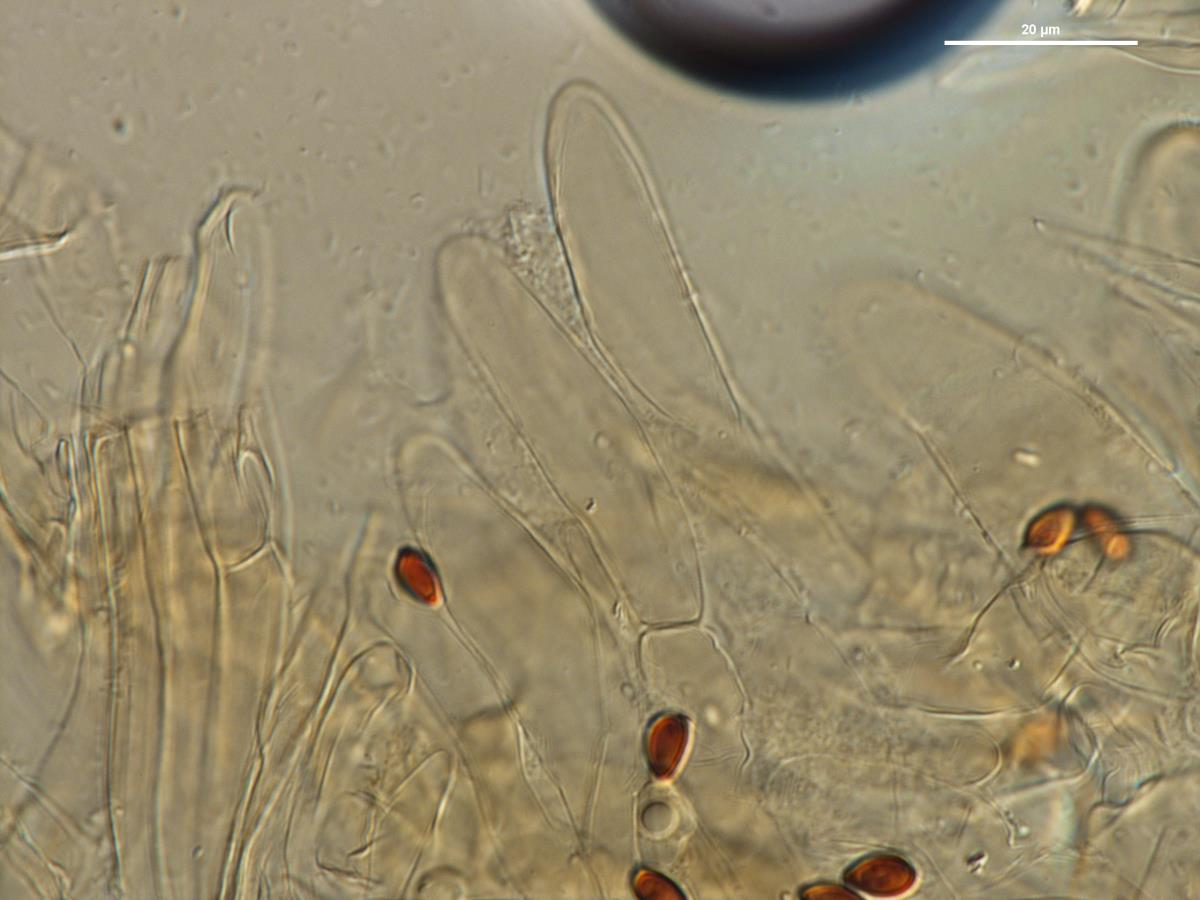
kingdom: Fungi
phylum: Basidiomycota
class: Agaricomycetes
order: Agaricales
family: Agaricaceae
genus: Leucoagaricus
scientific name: Leucoagaricus
